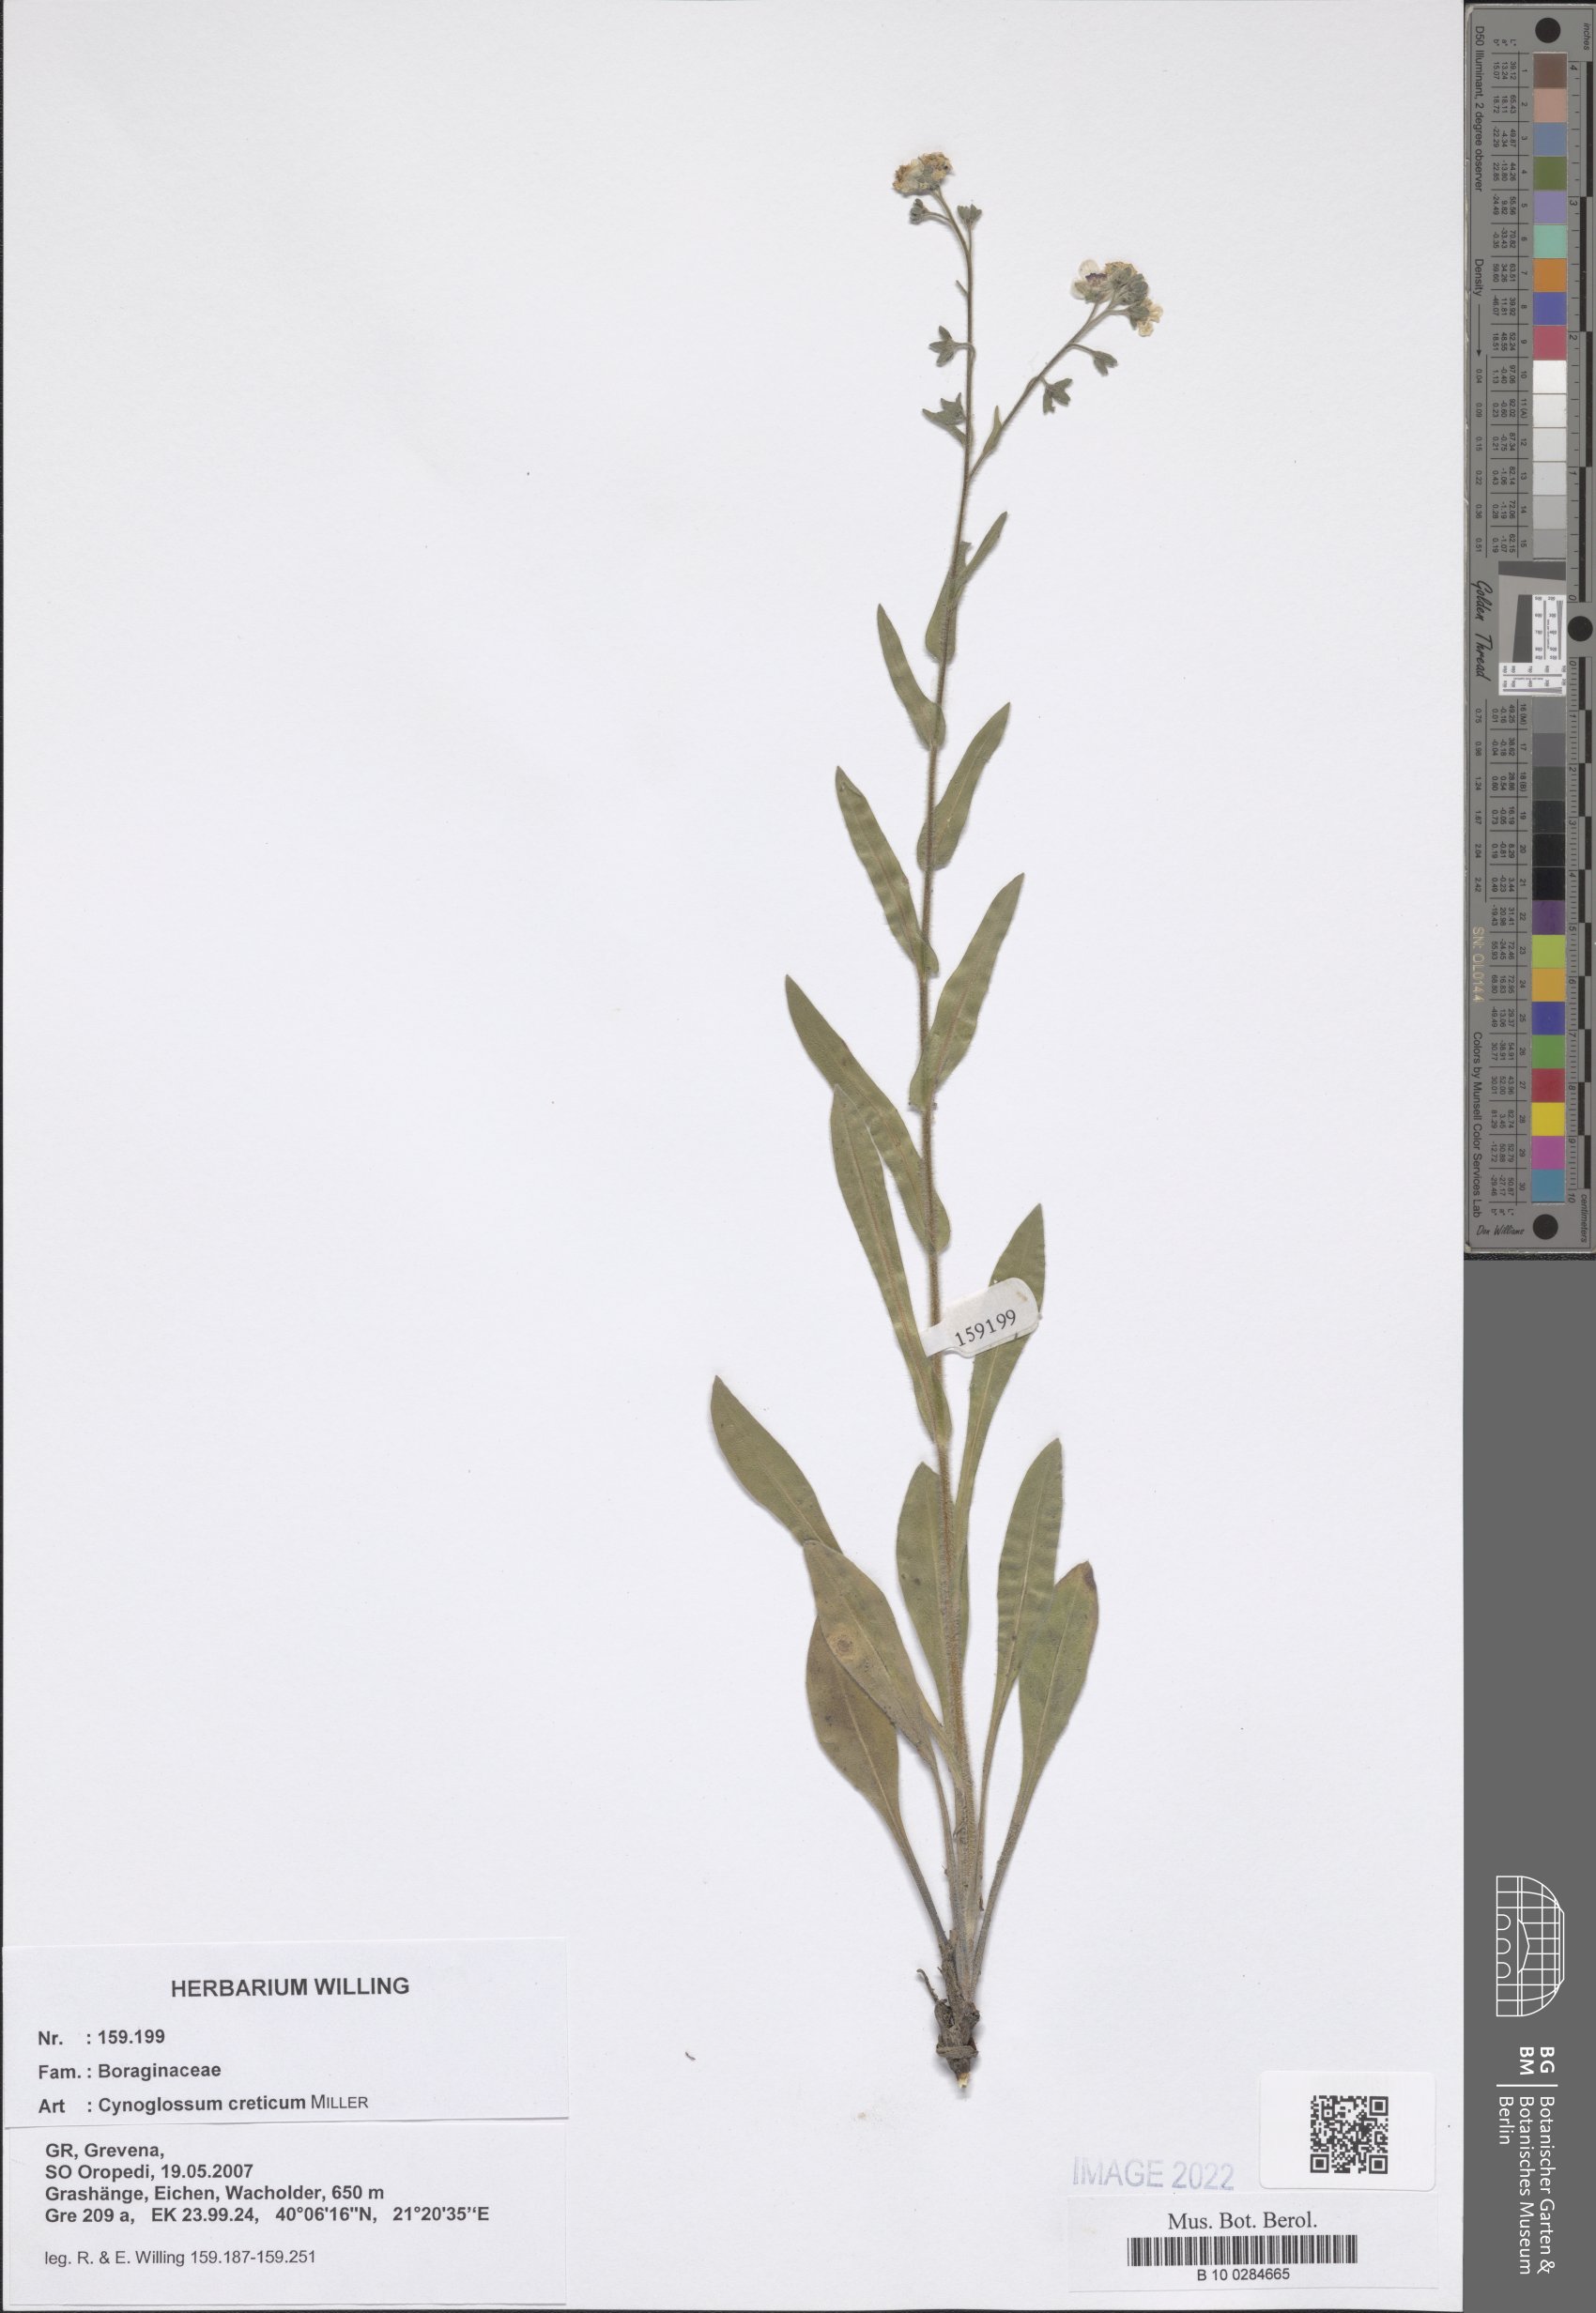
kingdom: Plantae
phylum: Tracheophyta
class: Magnoliopsida
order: Boraginales
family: Boraginaceae
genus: Cynoglossum
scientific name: Cynoglossum creticum
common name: Blue hound's tongue
